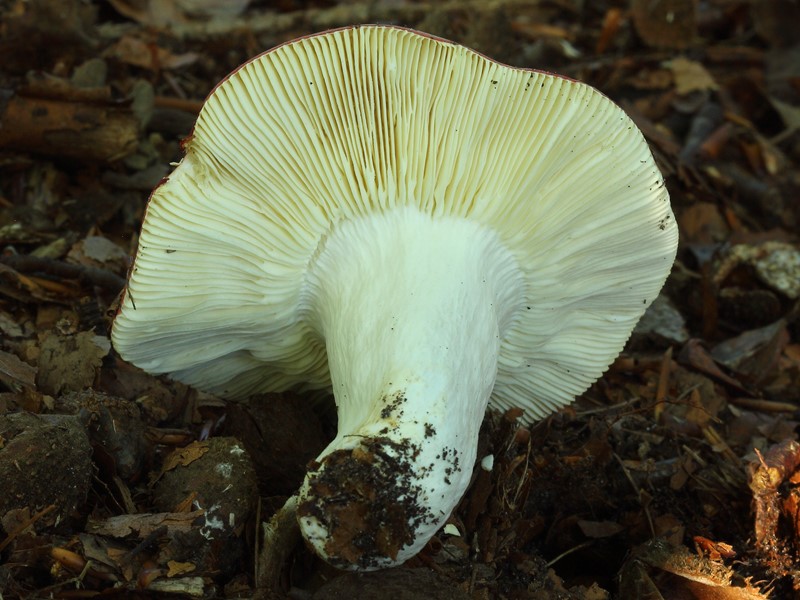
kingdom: Fungi
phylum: Basidiomycota
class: Agaricomycetes
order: Russulales
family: Russulaceae
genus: Russula
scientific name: Russula
